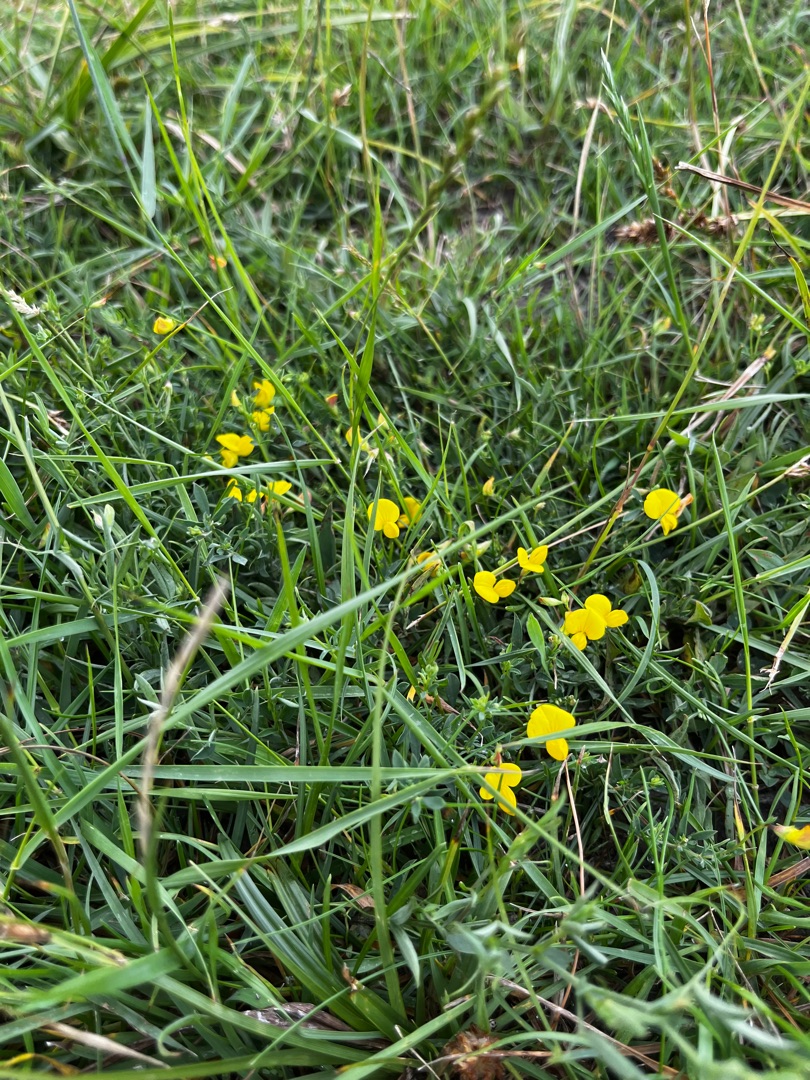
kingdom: Plantae
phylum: Tracheophyta
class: Magnoliopsida
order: Fabales
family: Fabaceae
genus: Lotus
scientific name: Lotus corniculatus
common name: Almindelig kællingetand
